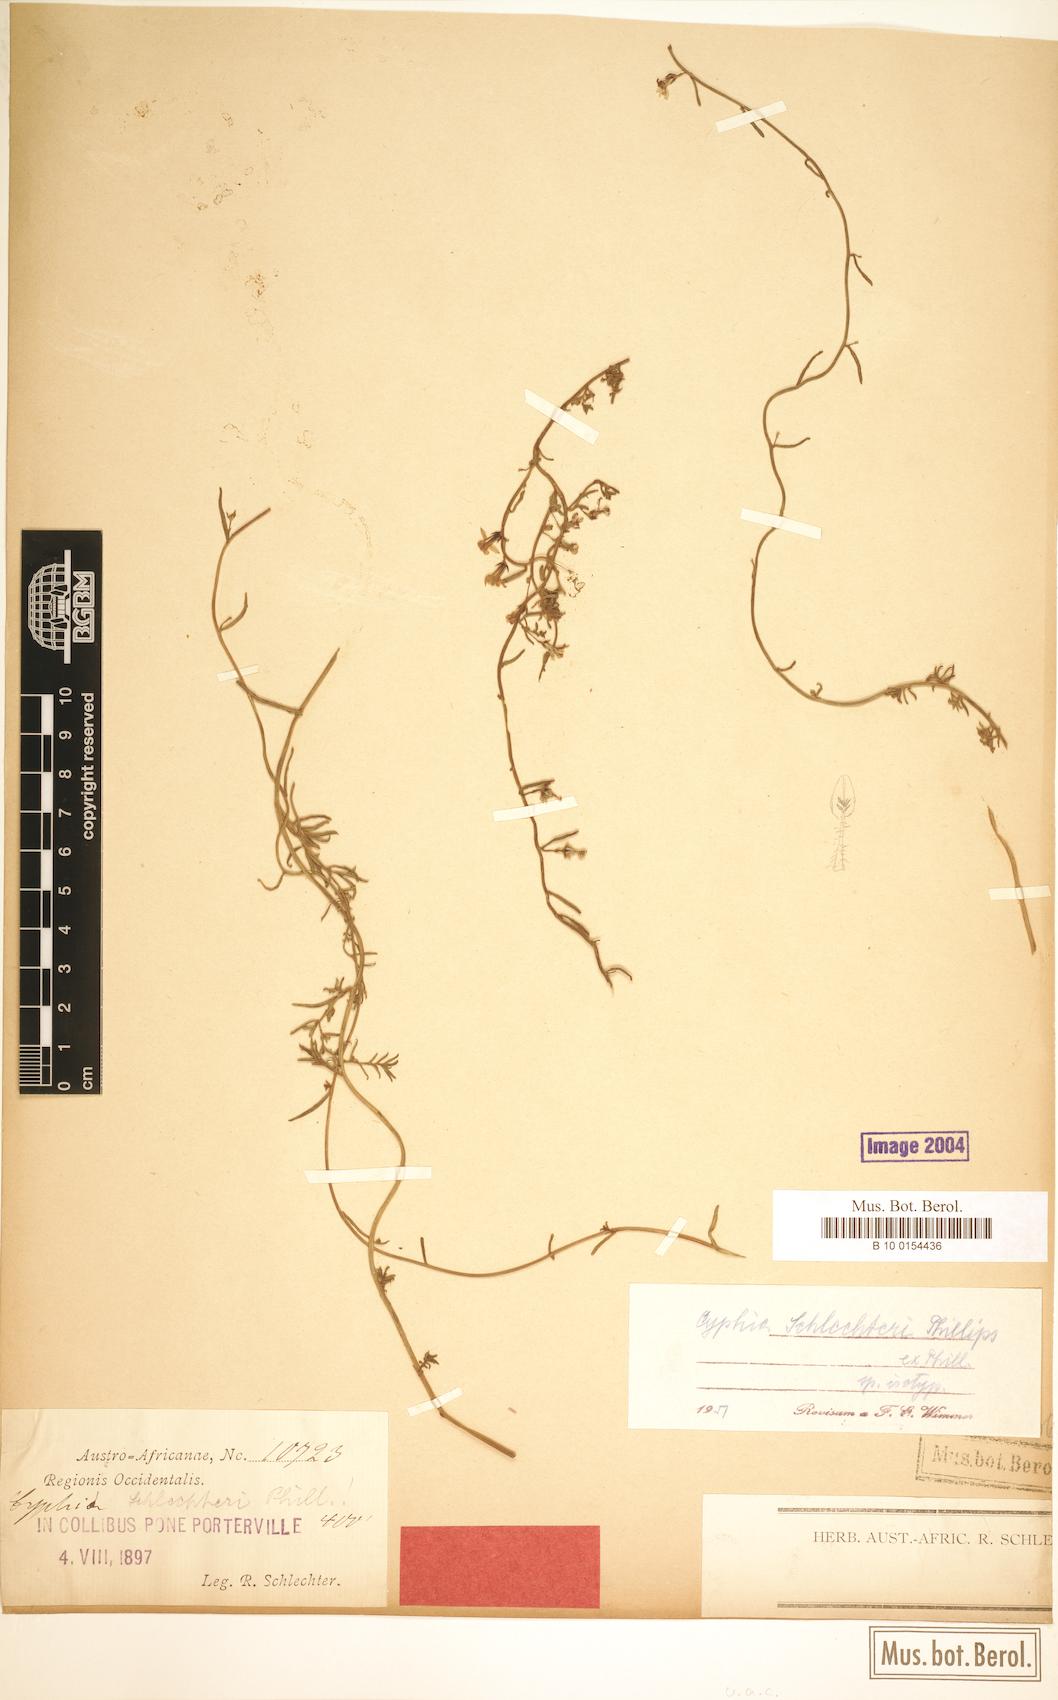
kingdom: Plantae
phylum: Tracheophyta
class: Magnoliopsida
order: Asterales
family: Campanulaceae
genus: Cyphia
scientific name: Cyphia schlechteri
